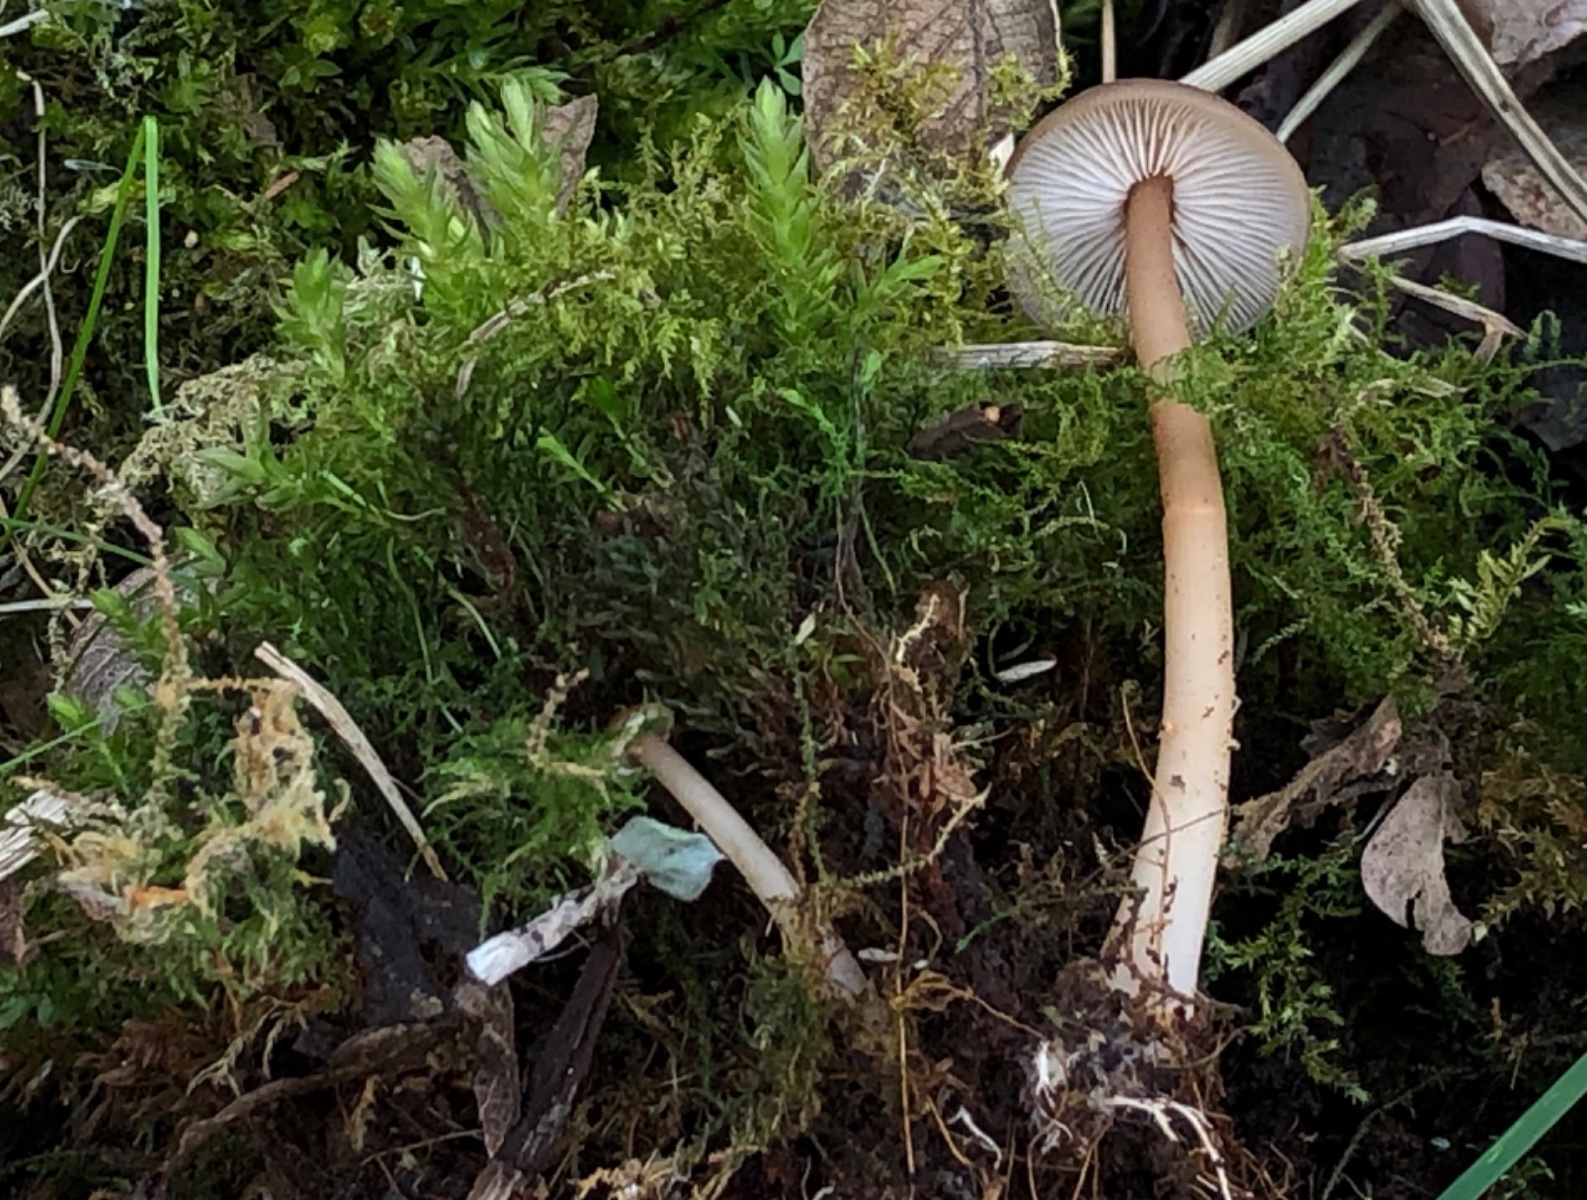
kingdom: Fungi
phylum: Basidiomycota
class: Agaricomycetes
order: Agaricales
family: Omphalotaceae
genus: Gymnopus
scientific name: Gymnopus ocior
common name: mørk fladhat
